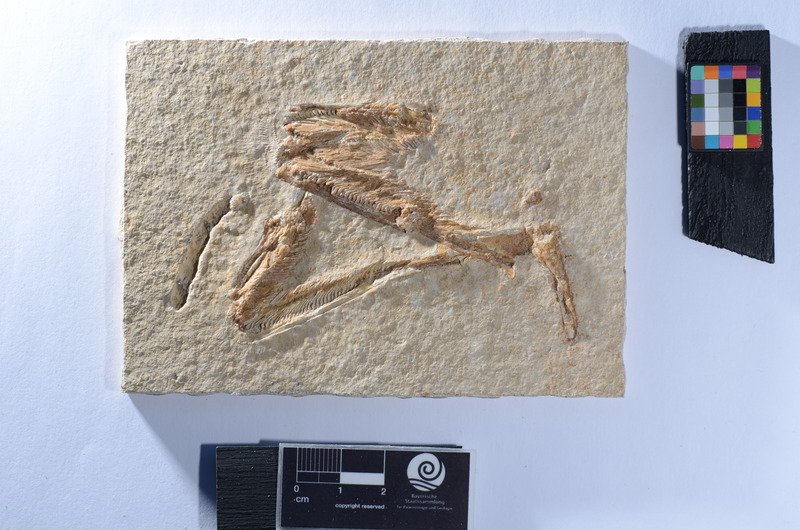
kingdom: Animalia
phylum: Chordata
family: Ophiopsiellidae
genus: Ophiopsis
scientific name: Ophiopsis
